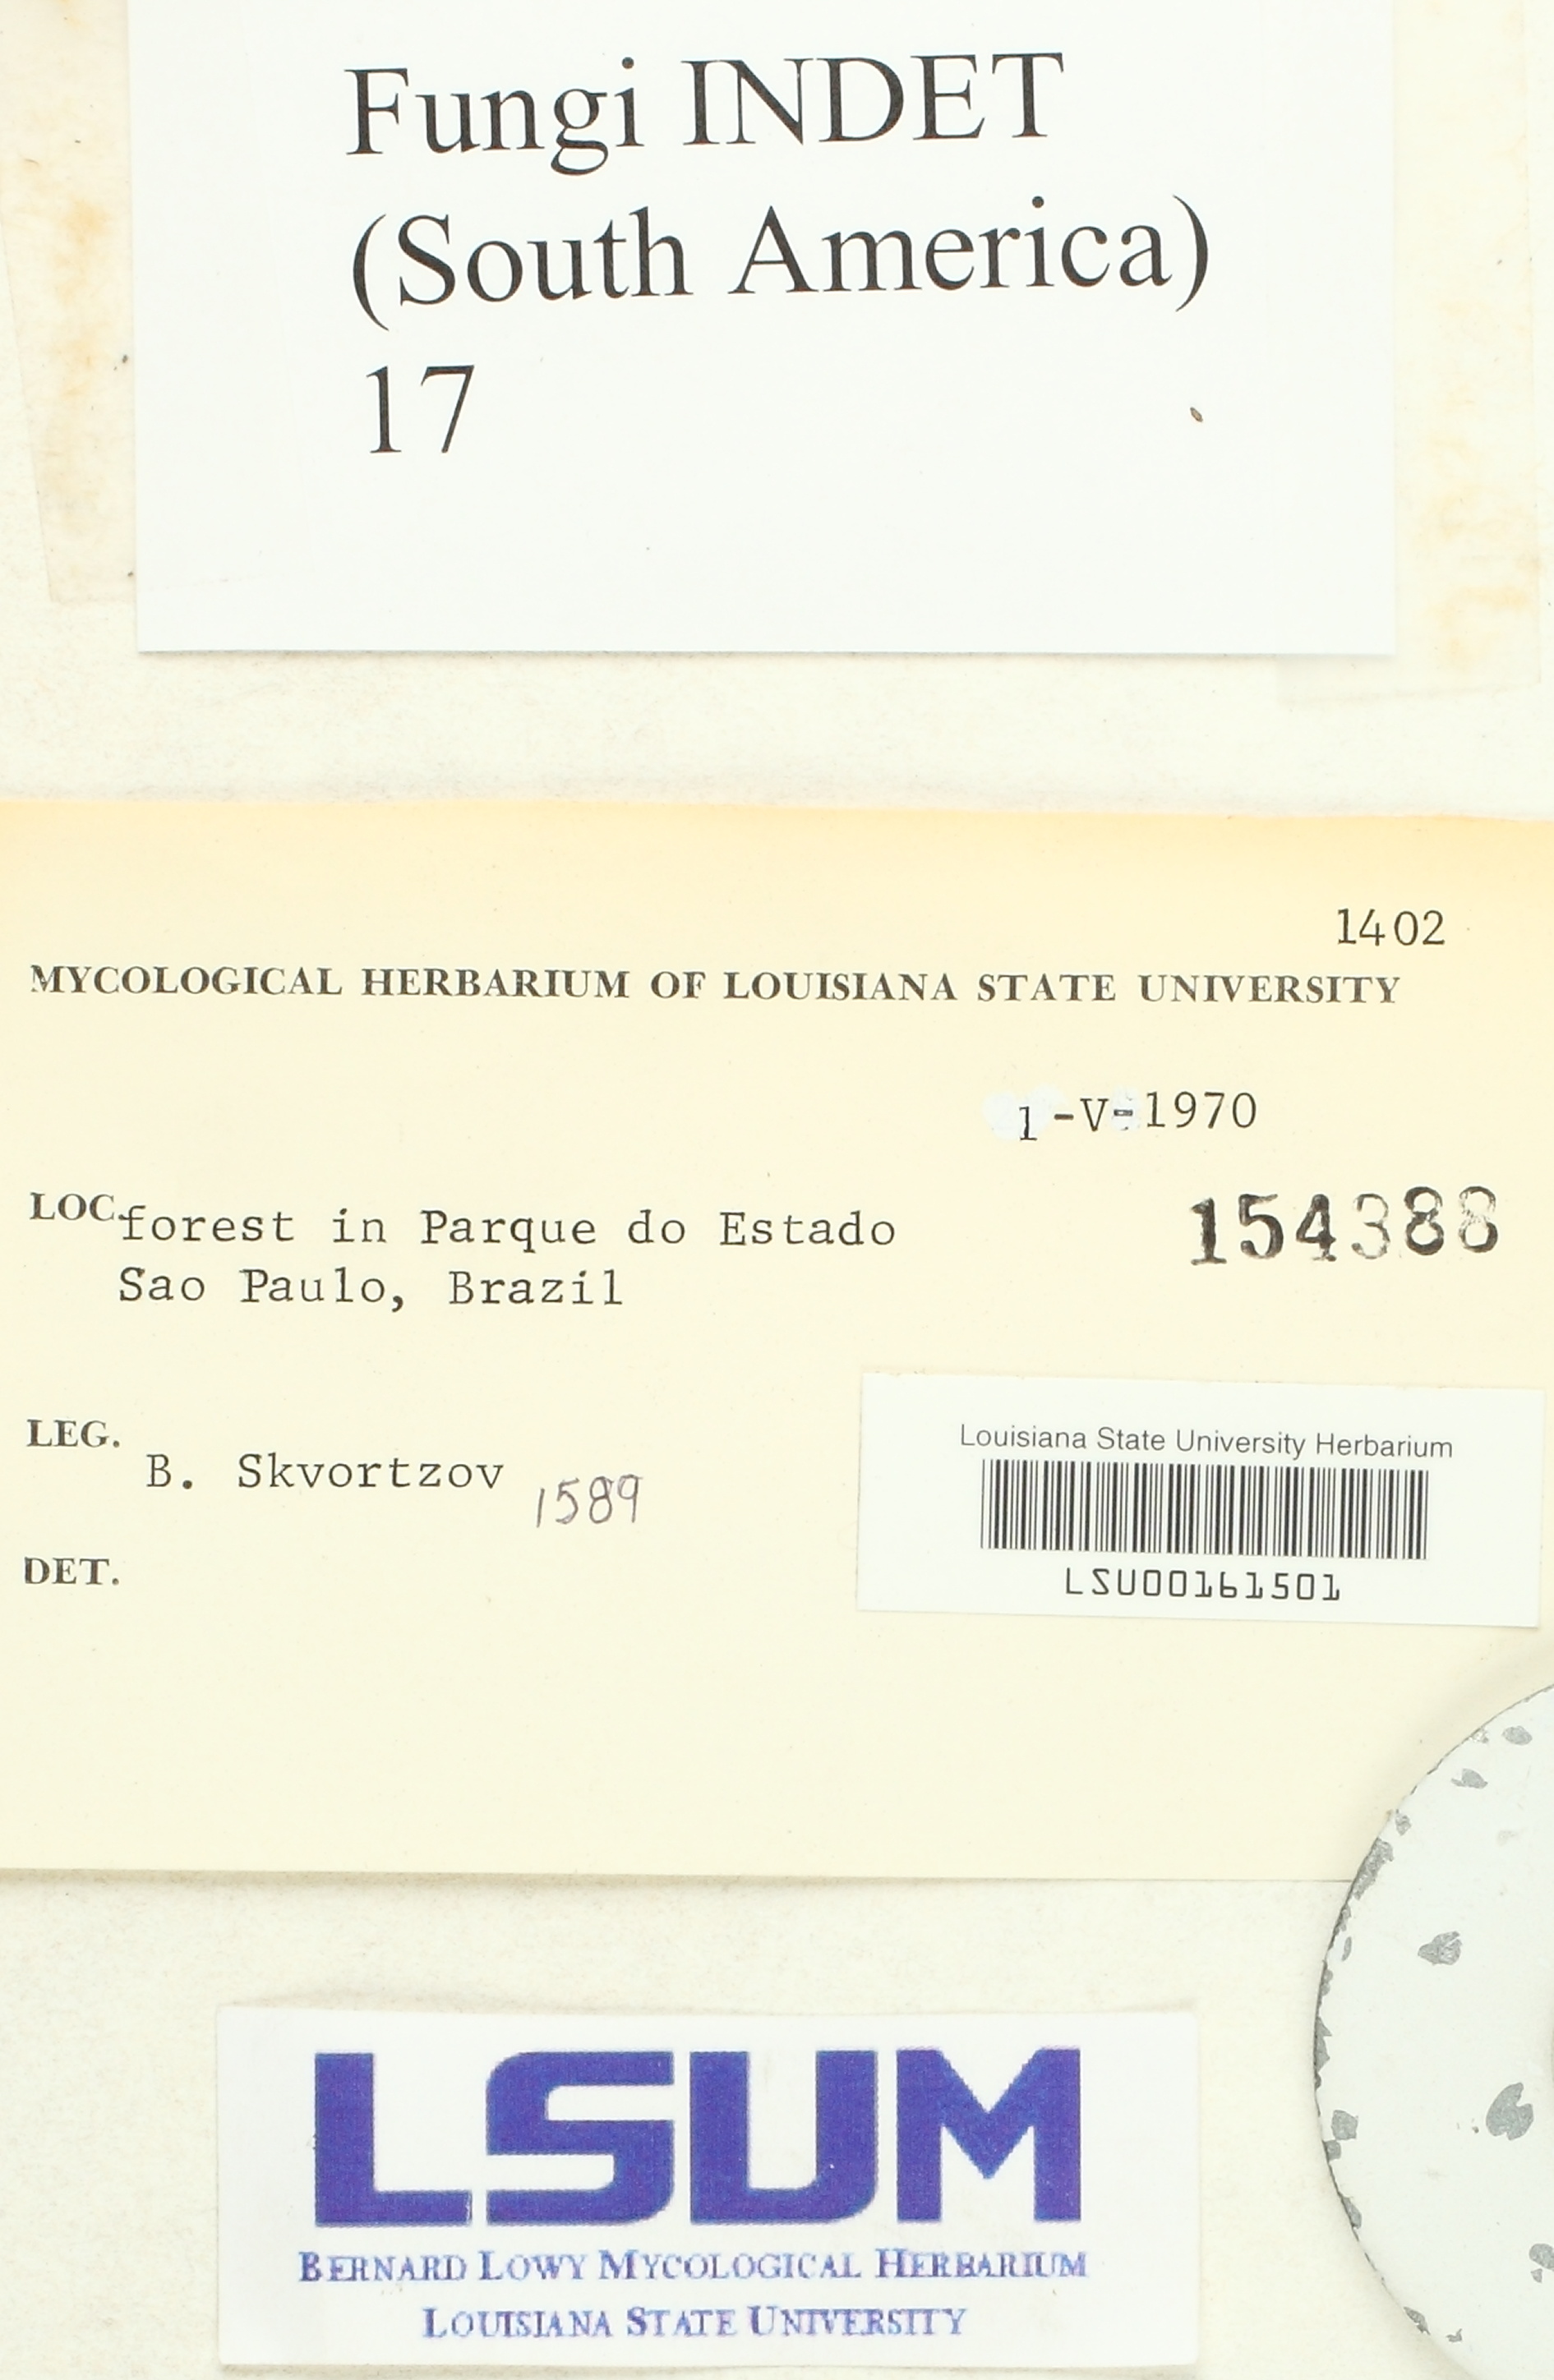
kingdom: Fungi
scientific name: Fungi
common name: Fungi
